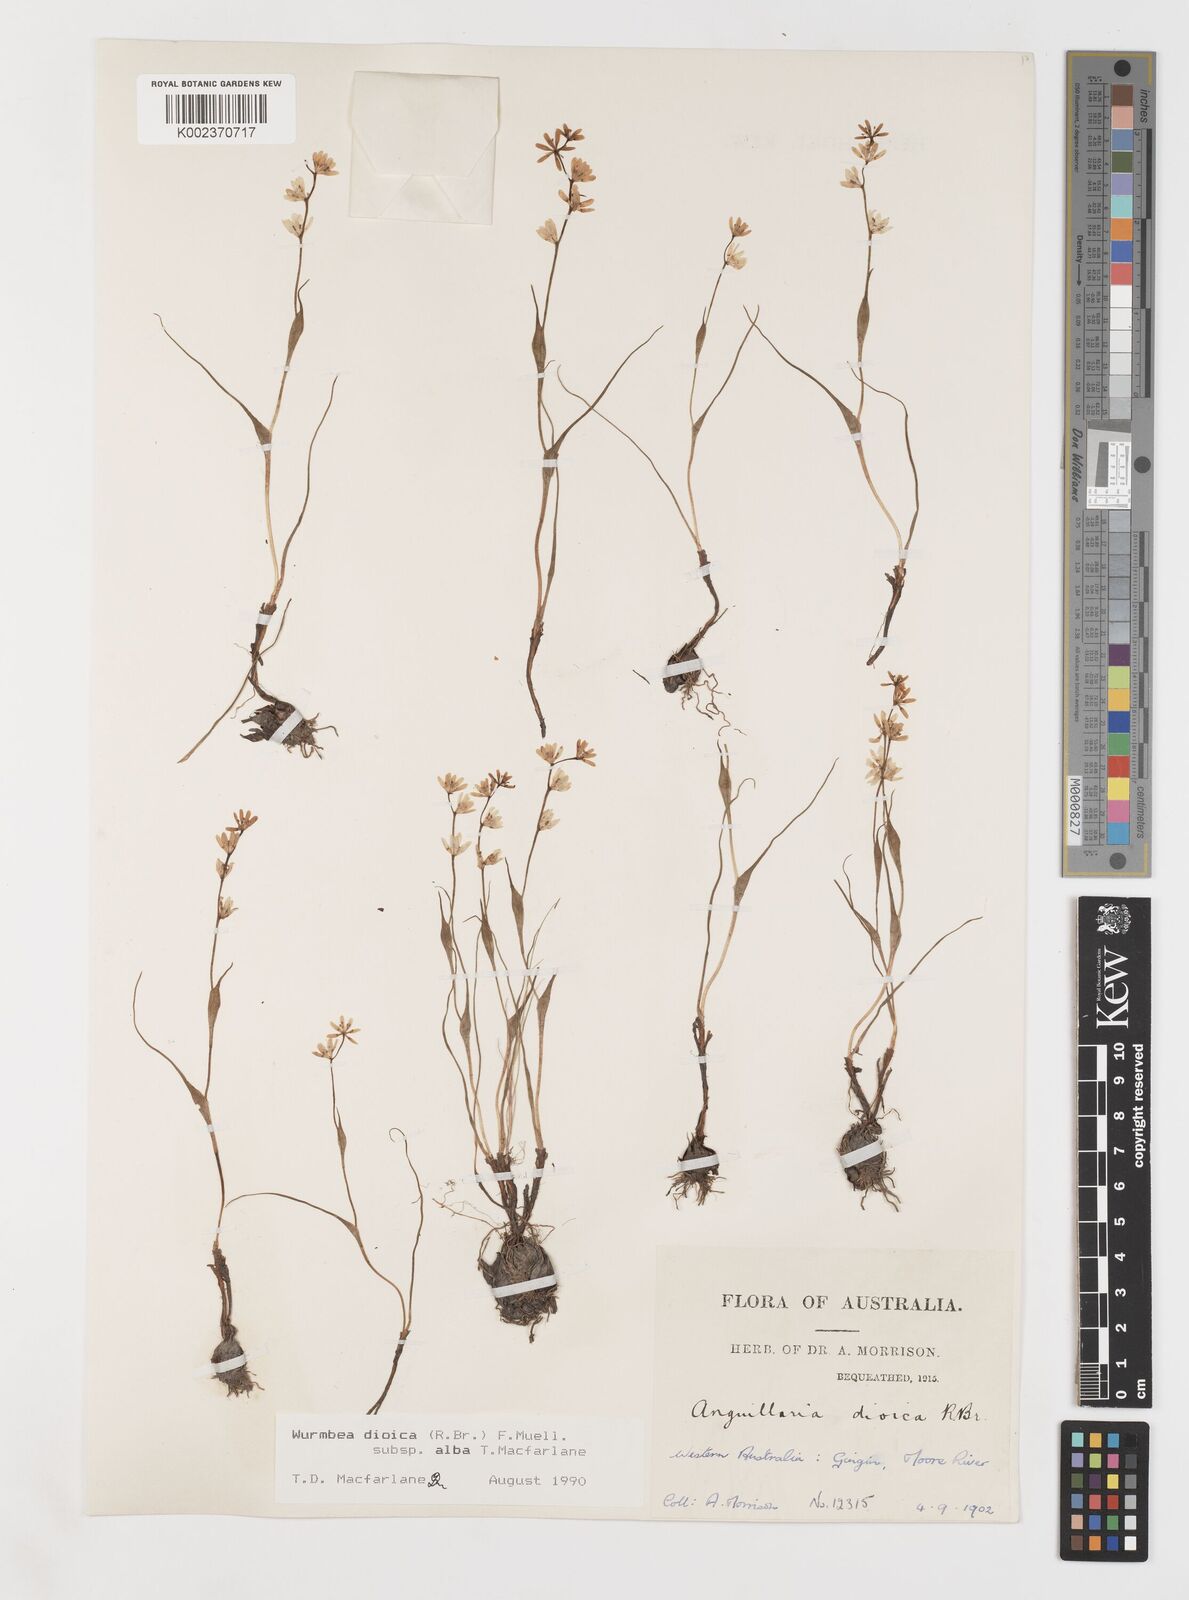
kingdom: Plantae
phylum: Tracheophyta
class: Liliopsida
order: Liliales
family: Colchicaceae
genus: Wurmbea
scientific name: Wurmbea dioica
